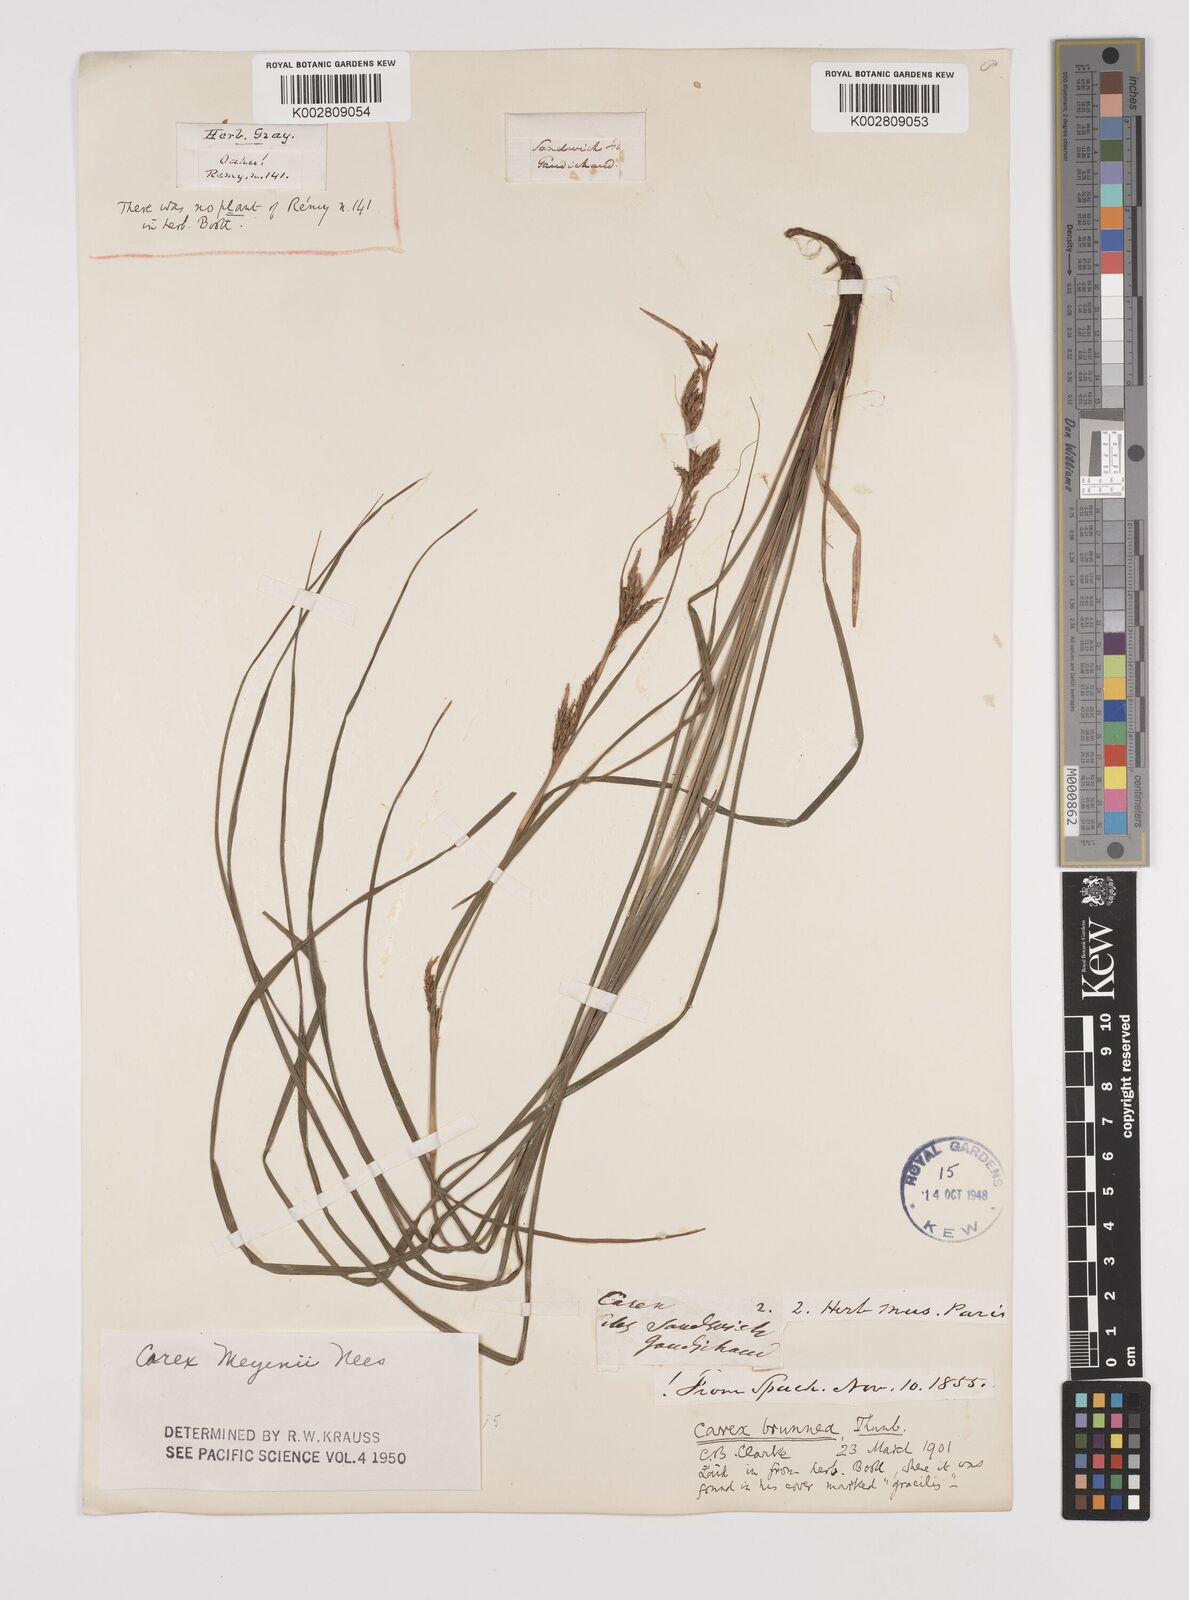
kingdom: Plantae
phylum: Tracheophyta
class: Liliopsida
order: Poales
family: Cyperaceae
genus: Carex
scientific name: Carex brunnea
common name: Greater brown sedge
